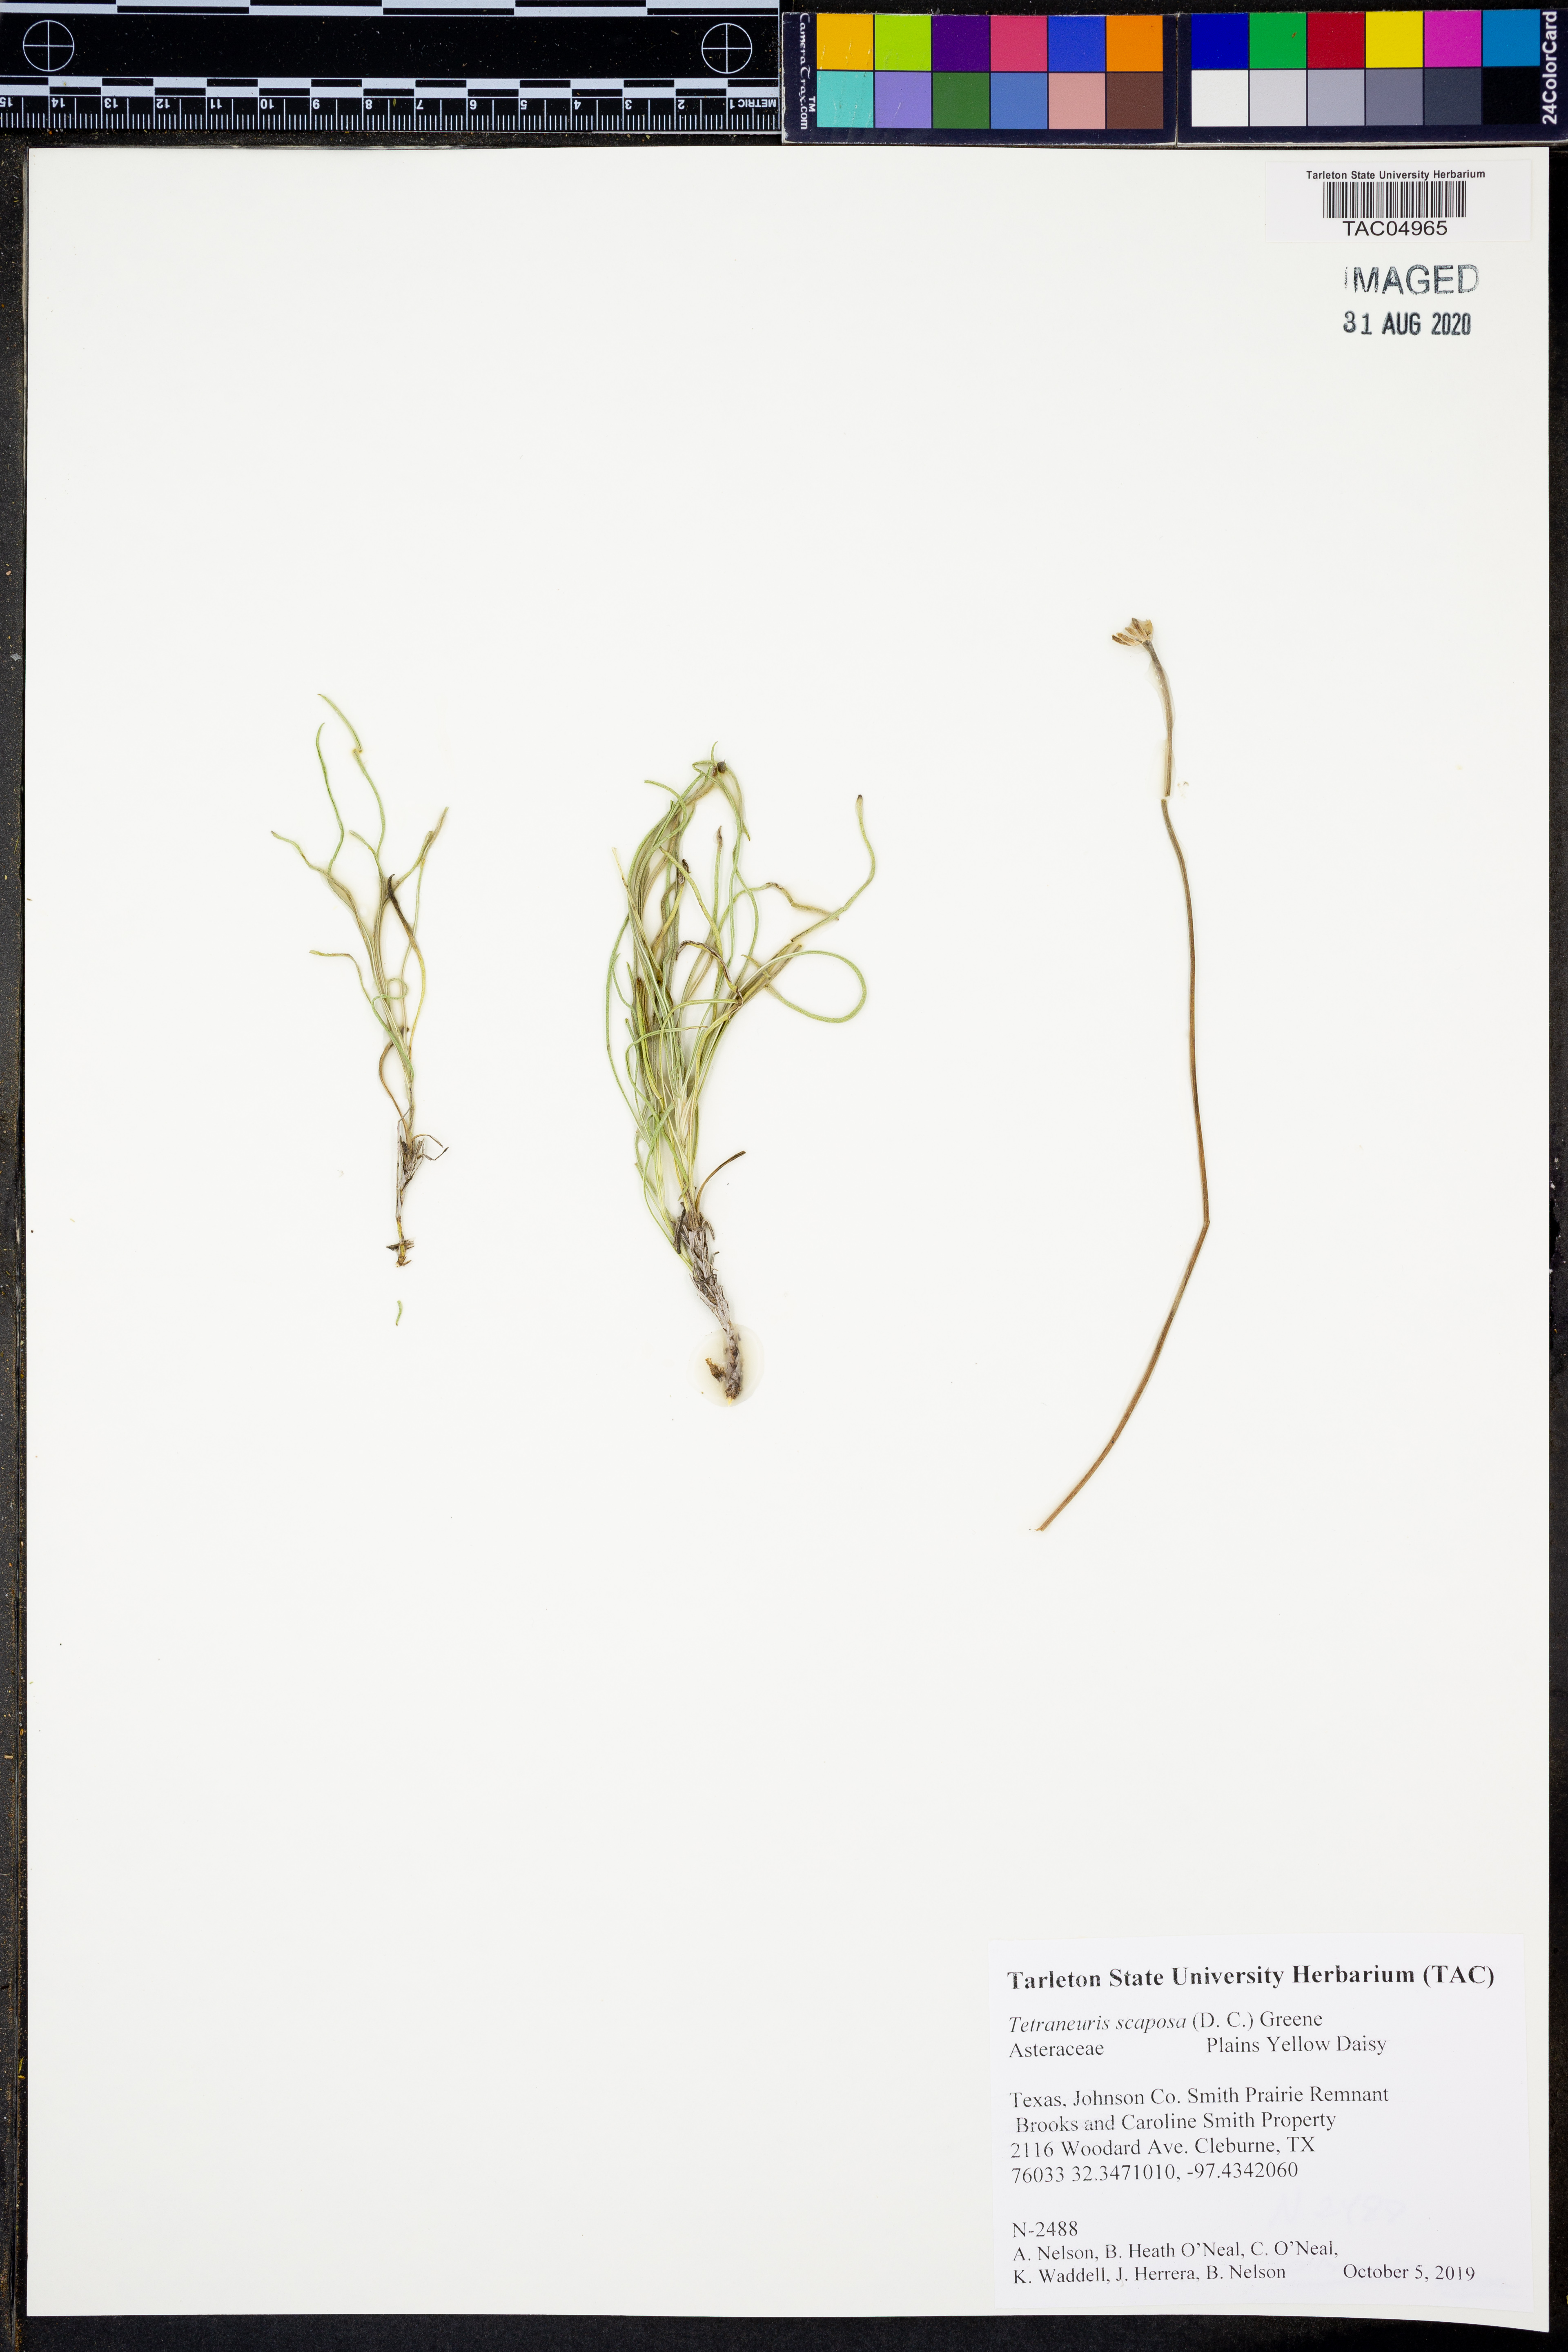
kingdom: Plantae
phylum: Tracheophyta
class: Magnoliopsida
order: Asterales
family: Asteraceae
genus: Tetraneuris
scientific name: Tetraneuris scaposa
